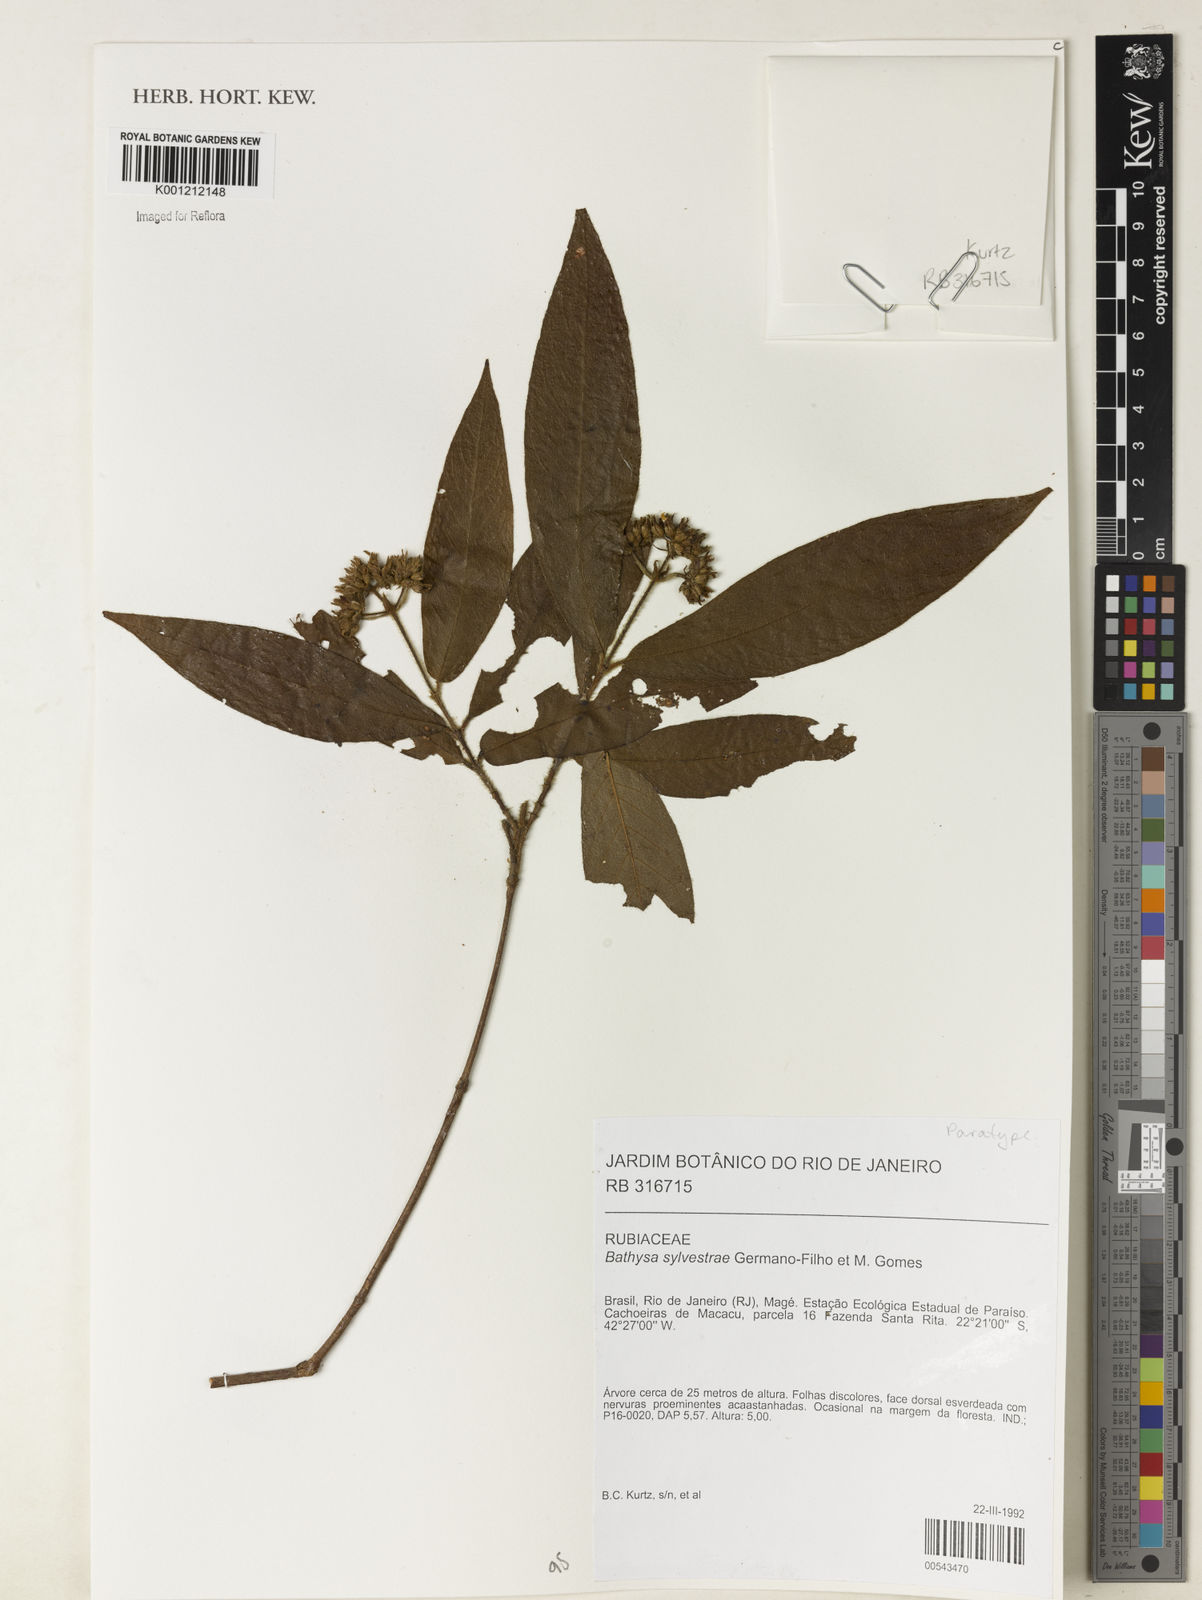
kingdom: Plantae
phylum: Tracheophyta
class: Magnoliopsida
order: Gentianales
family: Rubiaceae
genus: Bathysa
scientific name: Bathysa sylvestrae
